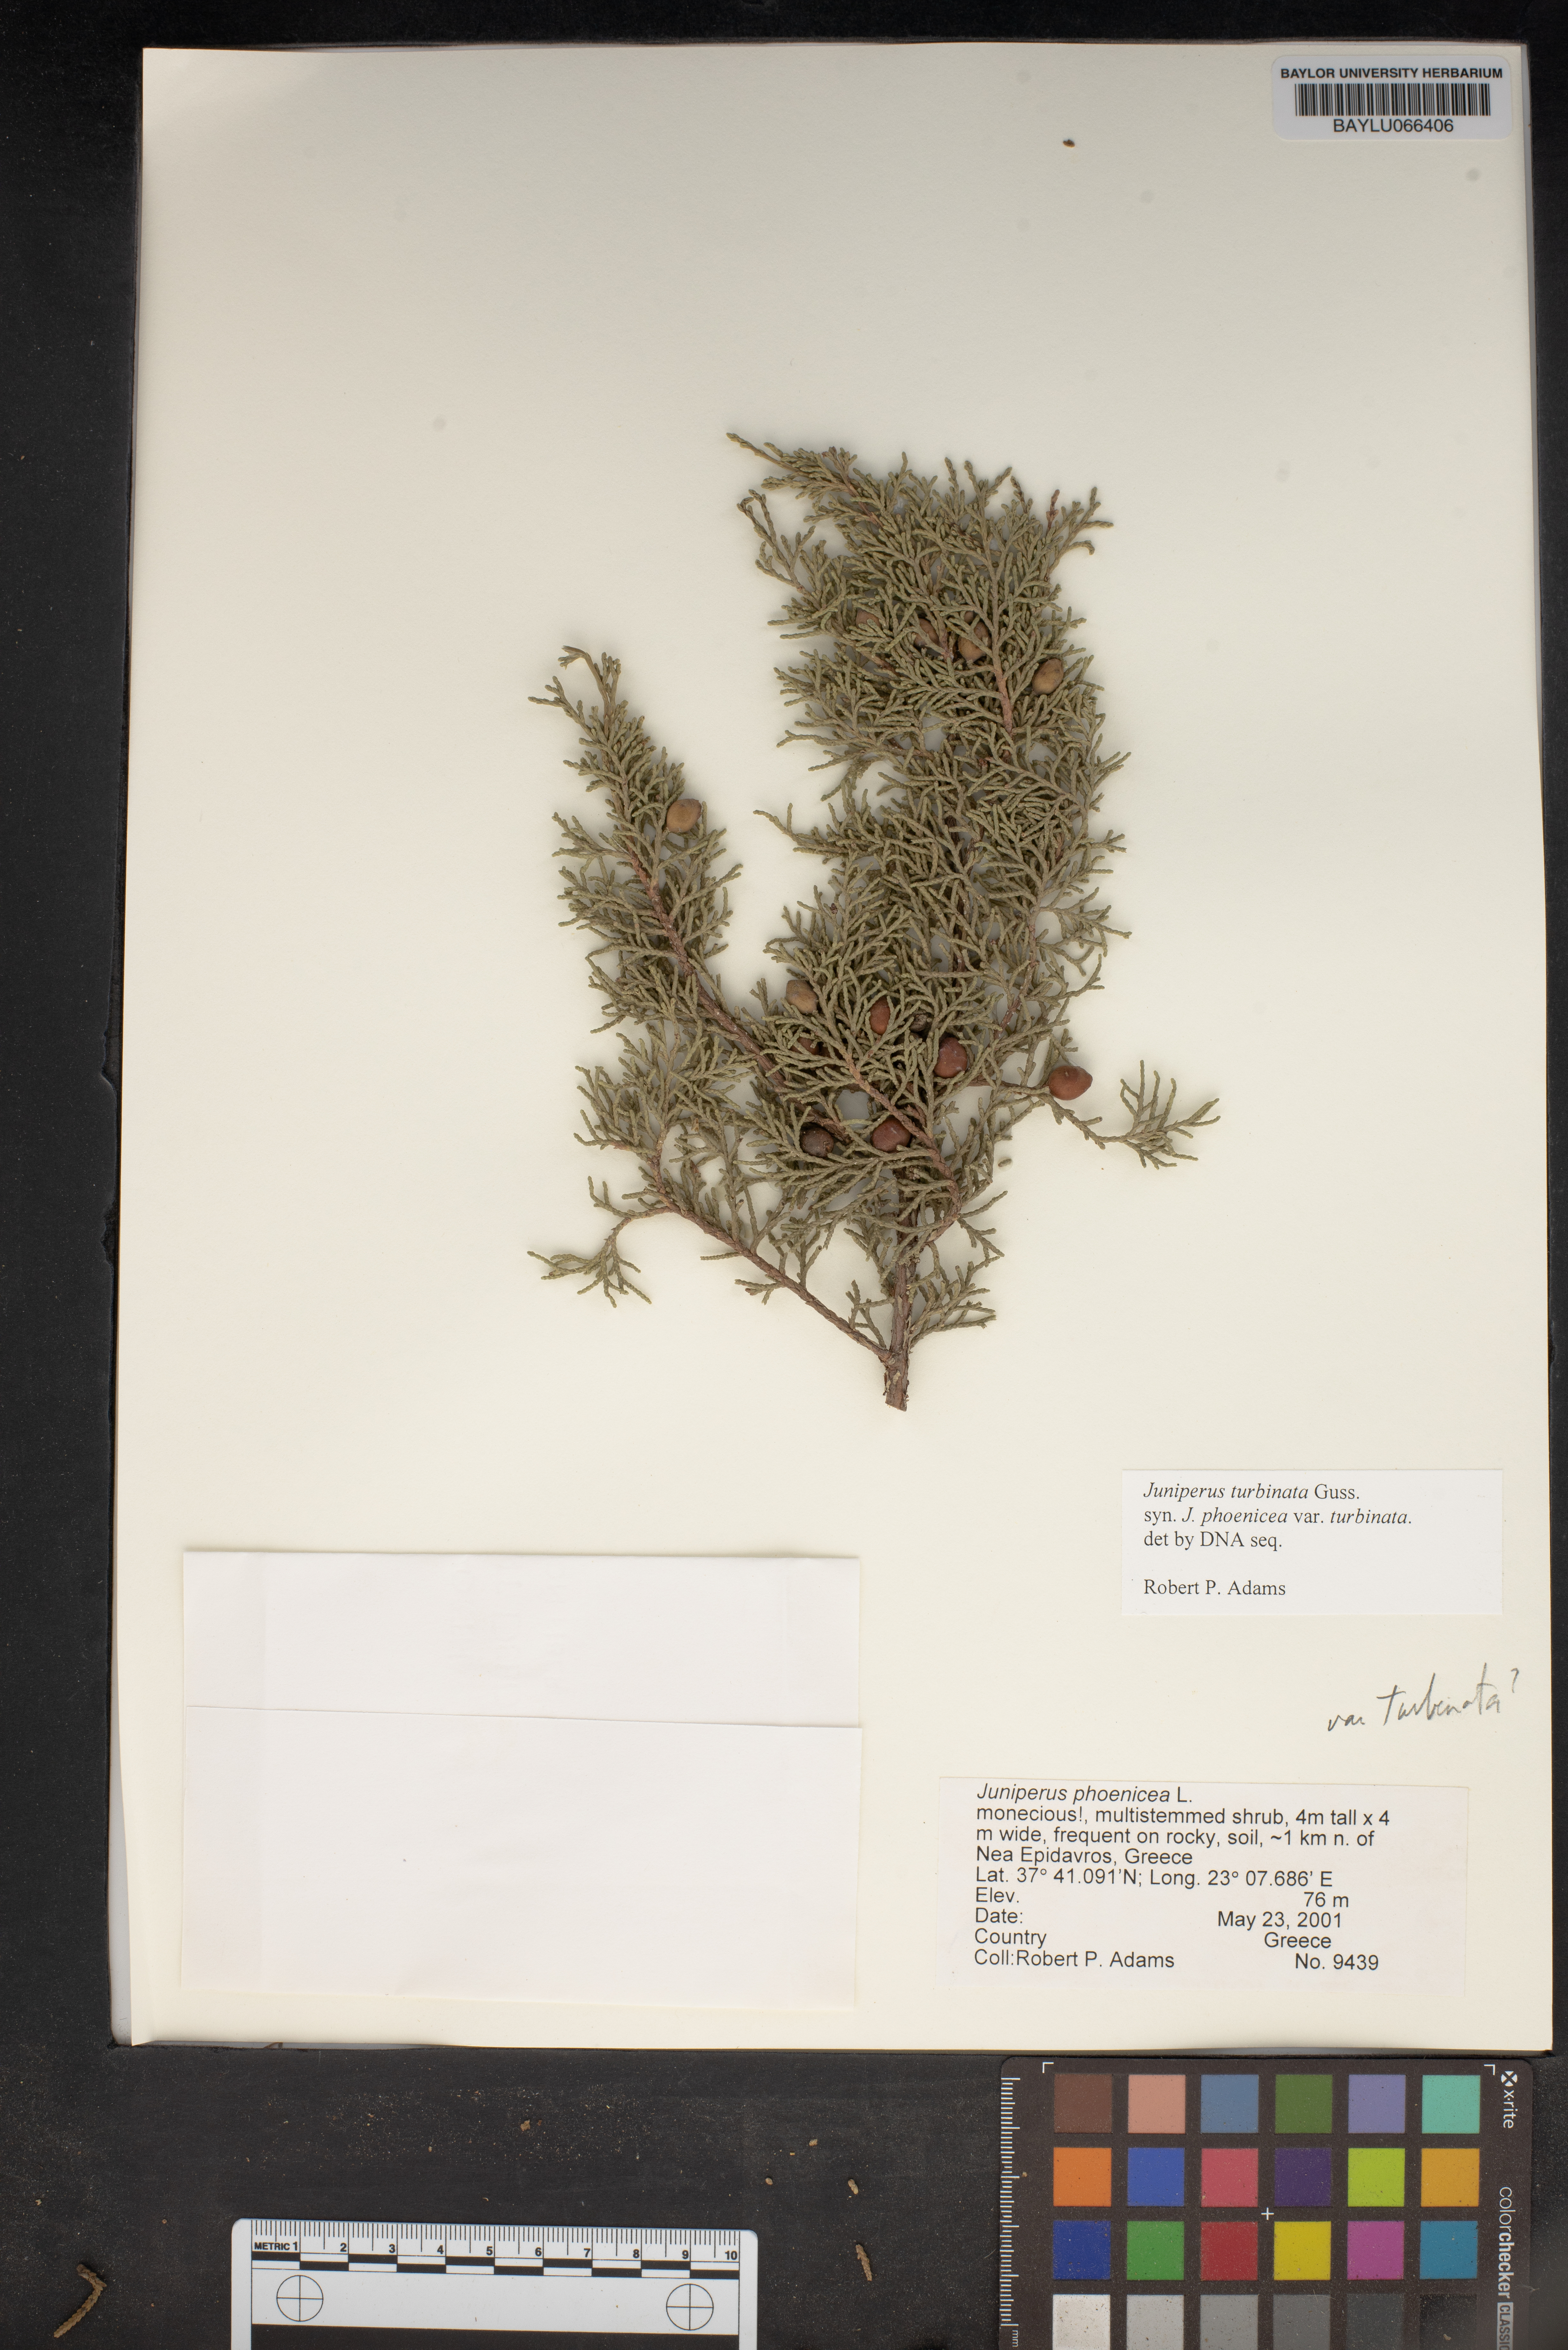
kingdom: Plantae
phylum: Tracheophyta
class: Pinopsida
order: Pinales
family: Cupressaceae
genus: Juniperus
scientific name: Juniperus phoenicea
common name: Phoenician juniper
